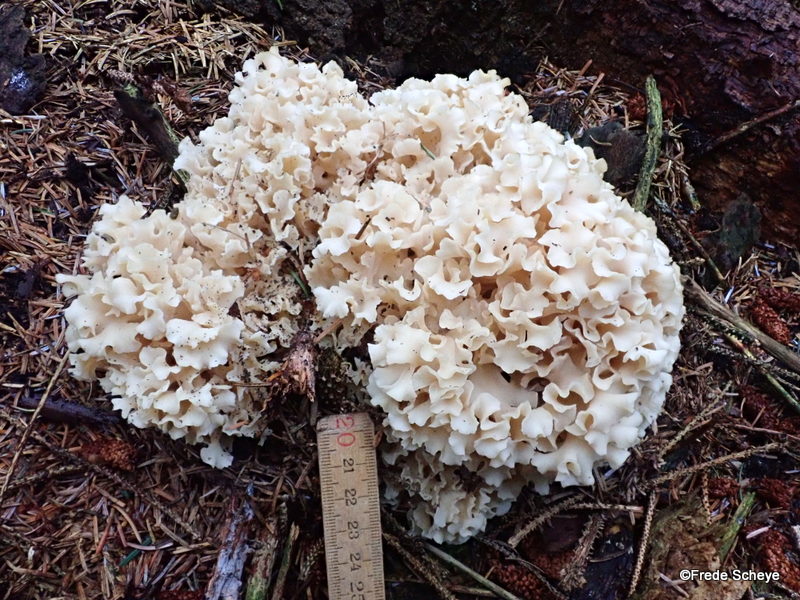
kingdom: Fungi
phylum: Basidiomycota
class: Agaricomycetes
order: Polyporales
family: Sparassidaceae
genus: Sparassis
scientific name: Sparassis crispa
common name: kruset blomkålssvamp
